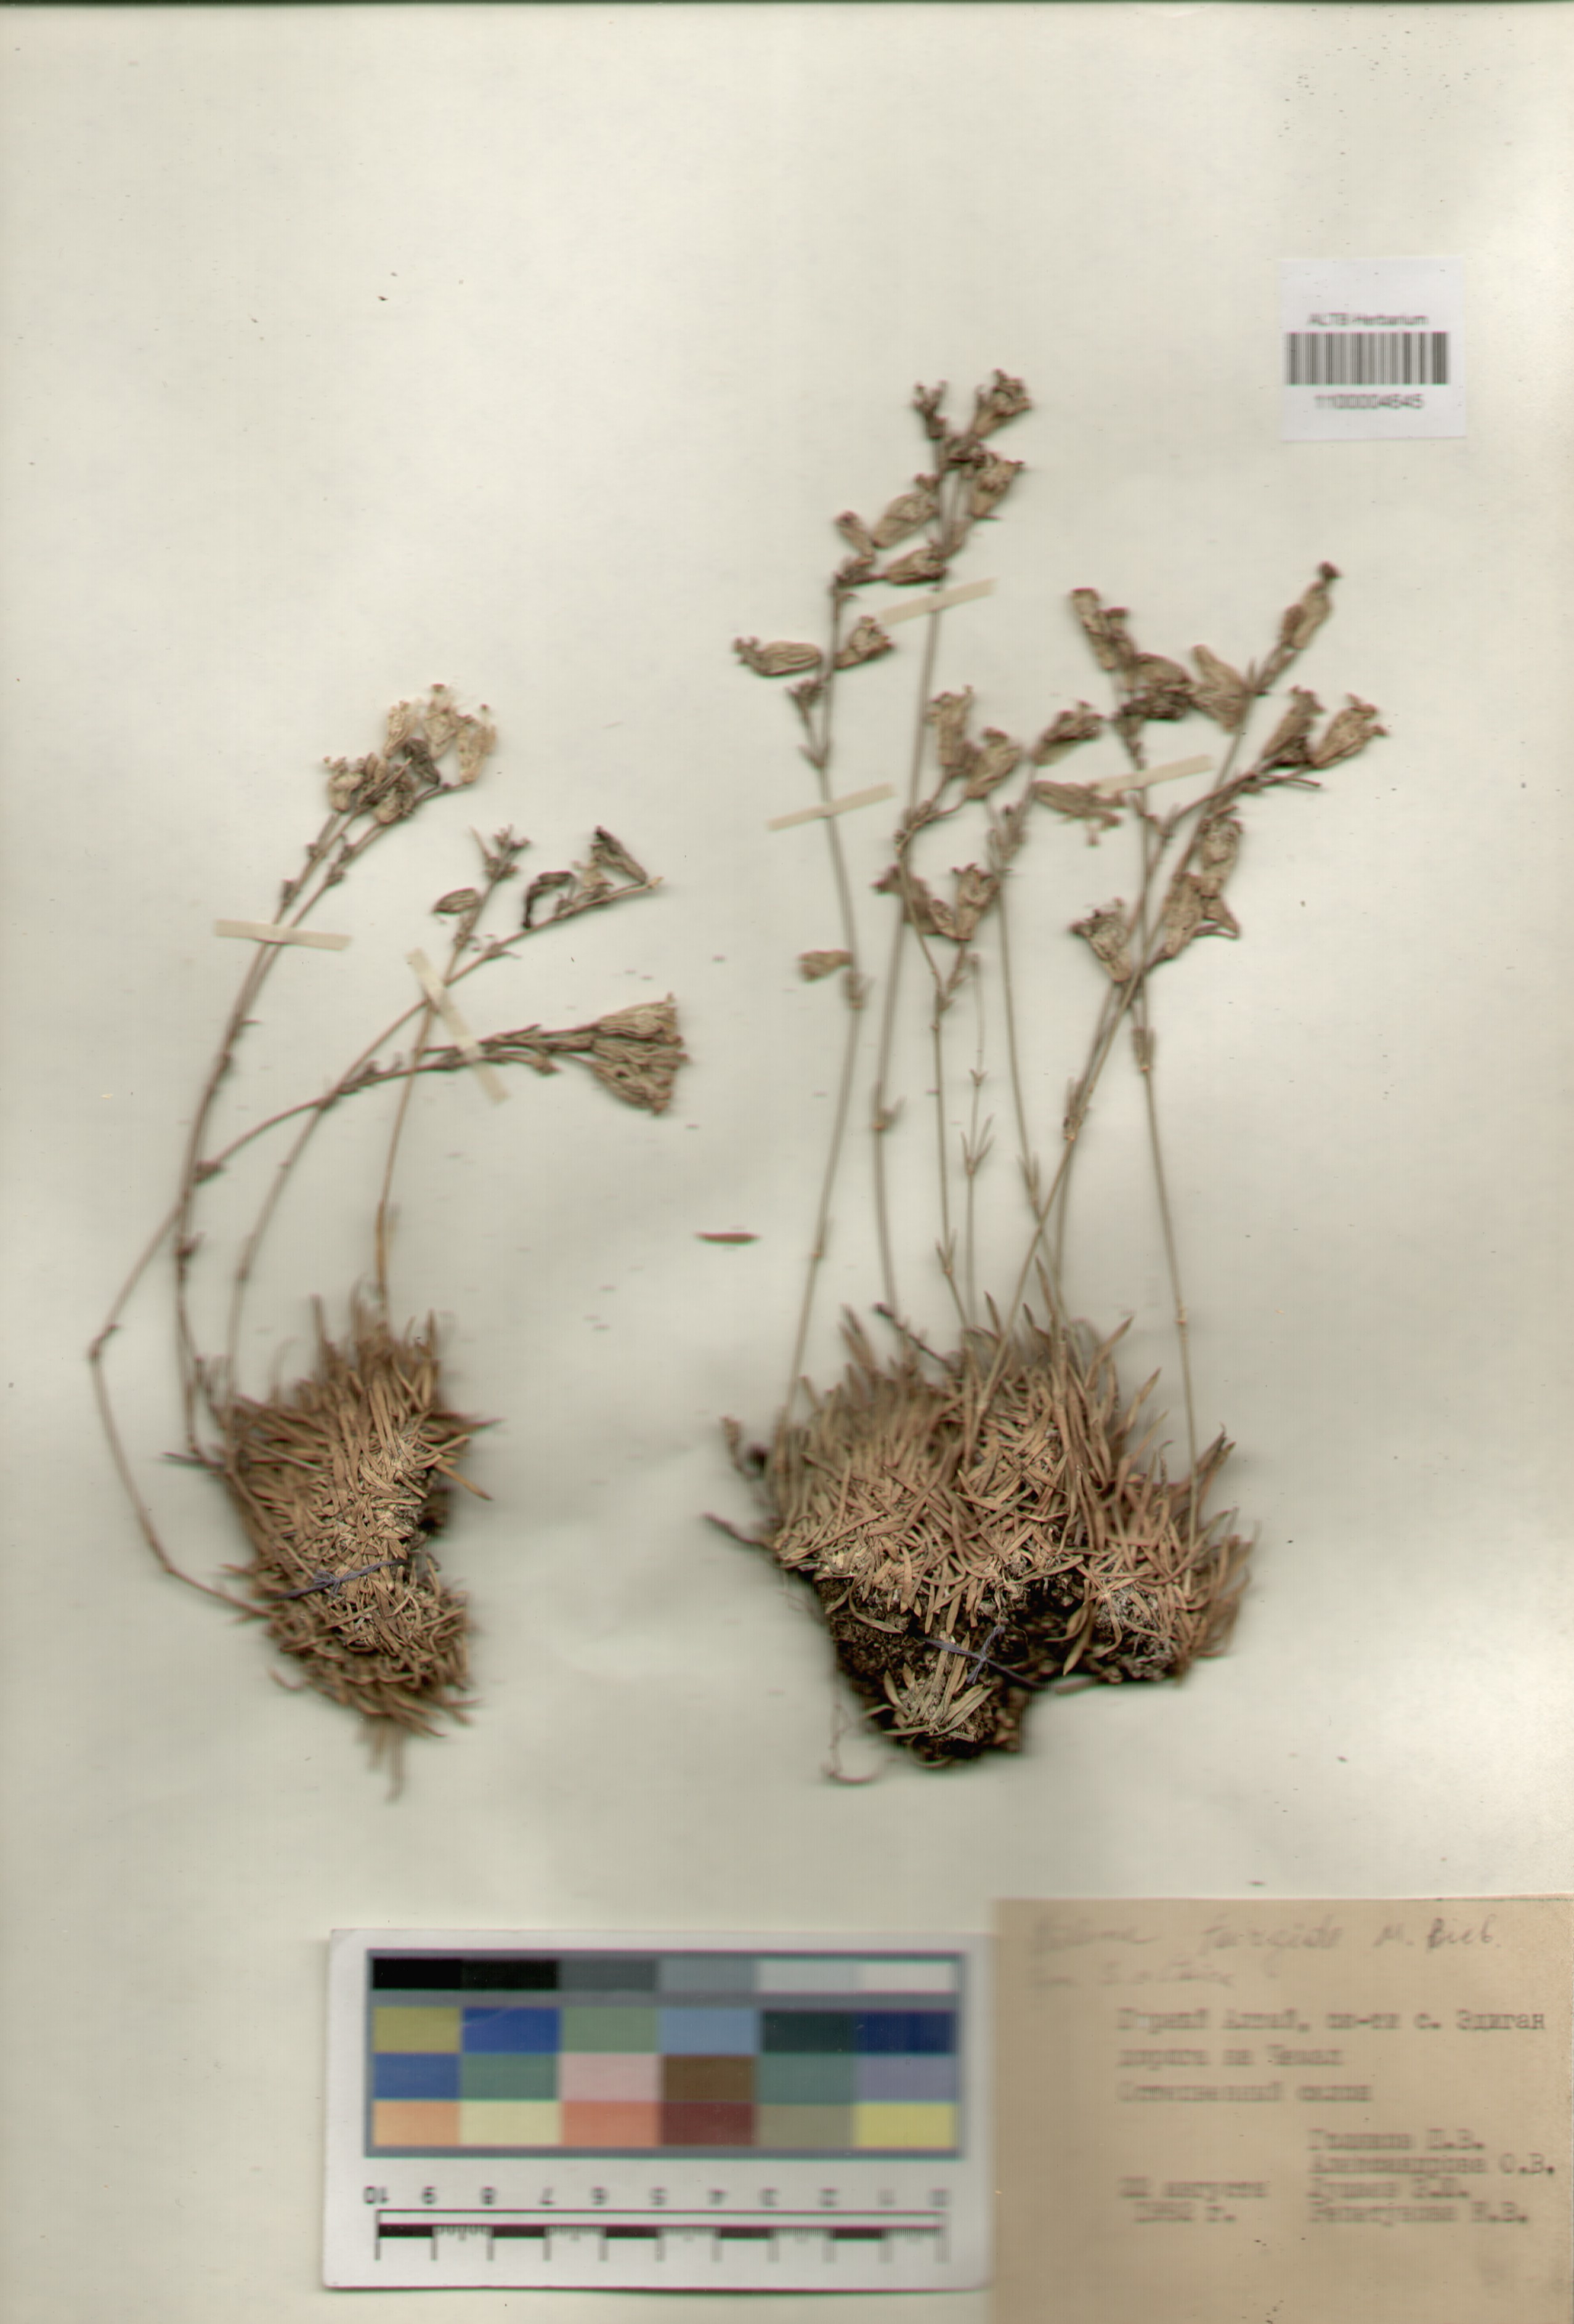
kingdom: Plantae
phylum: Tracheophyta
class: Magnoliopsida
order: Caryophyllales
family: Caryophyllaceae
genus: Silene
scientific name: Silene turgida
